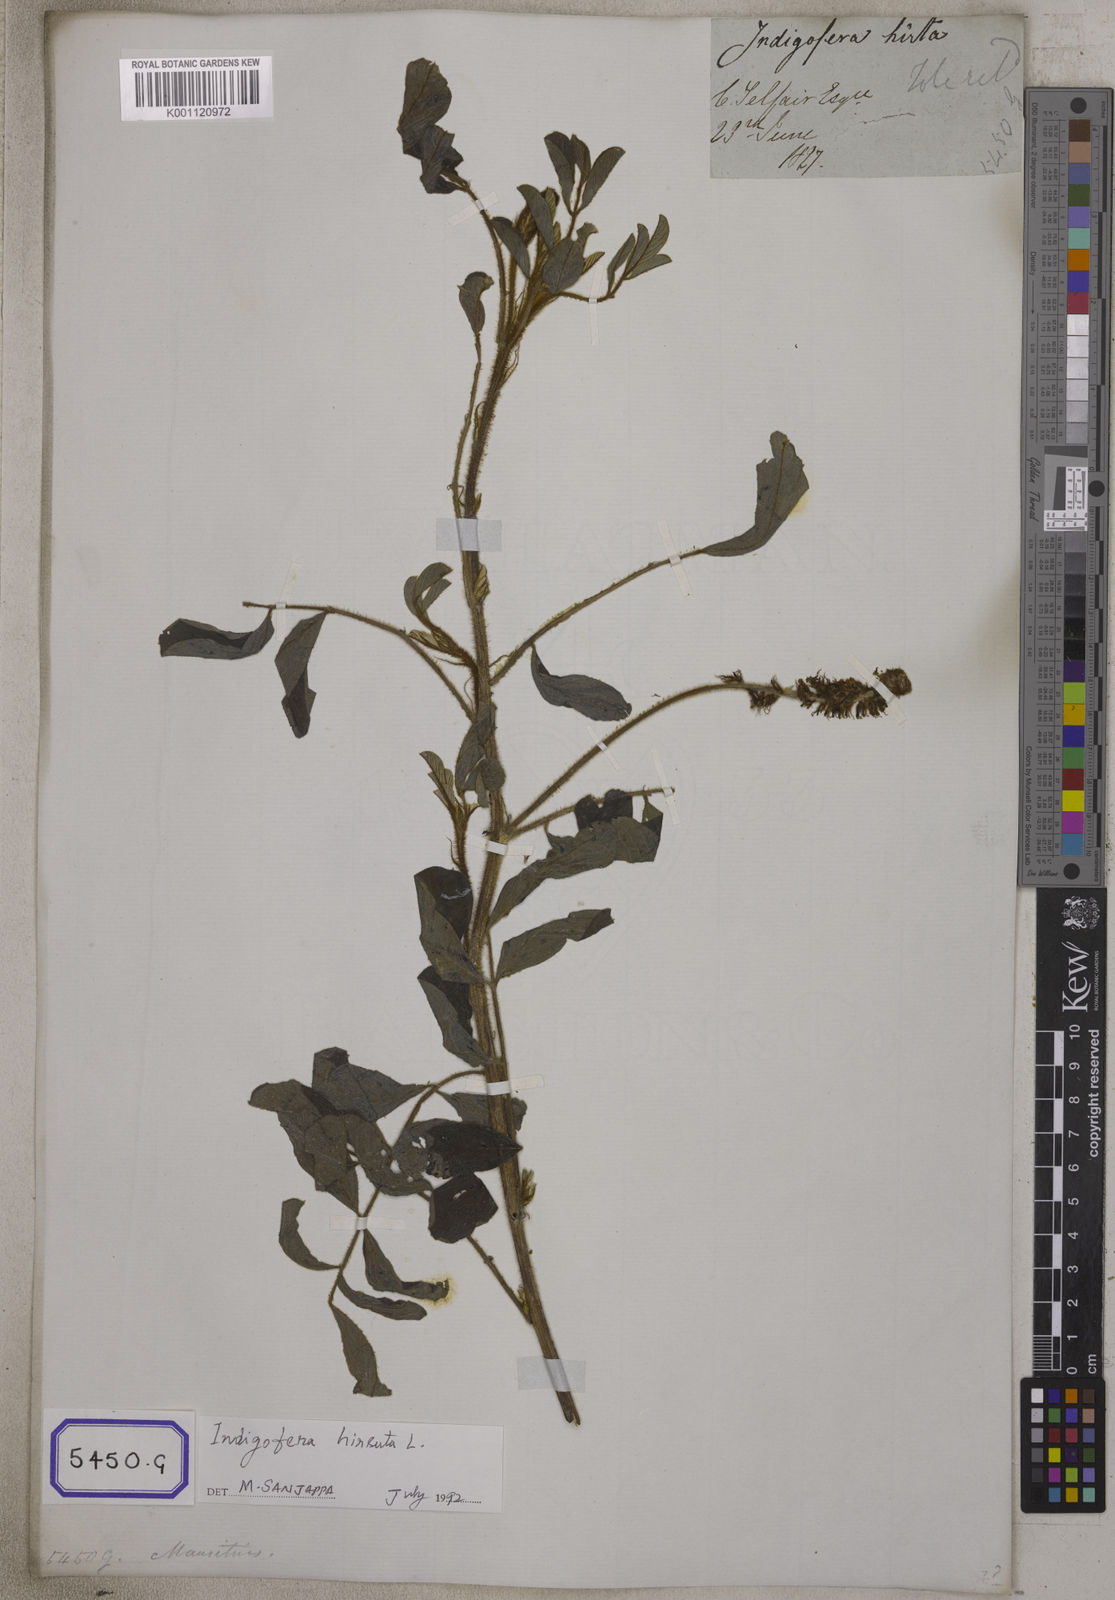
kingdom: Plantae
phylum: Tracheophyta
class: Magnoliopsida
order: Fabales
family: Fabaceae
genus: Indigofera
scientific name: Indigofera hirsuta
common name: Hairy indigo
